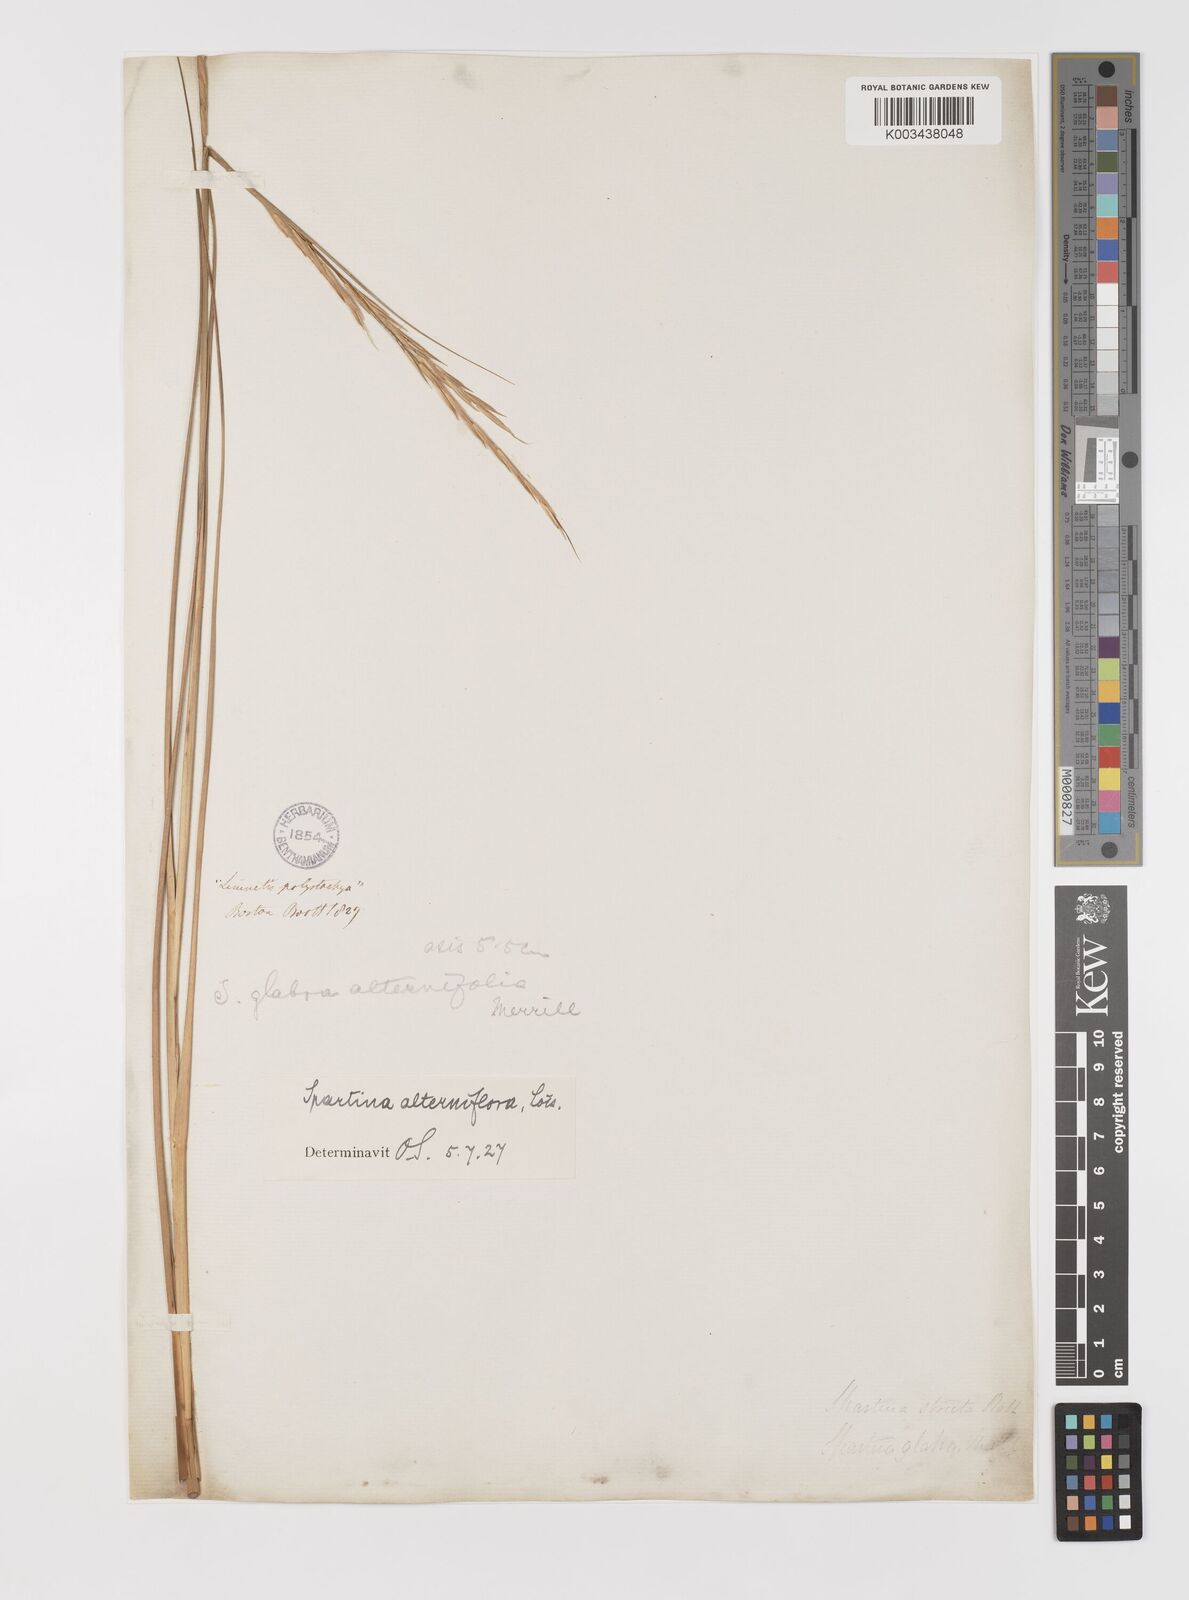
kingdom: Plantae
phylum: Tracheophyta
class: Liliopsida
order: Poales
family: Poaceae
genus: Sporobolus
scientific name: Sporobolus coarctatus
